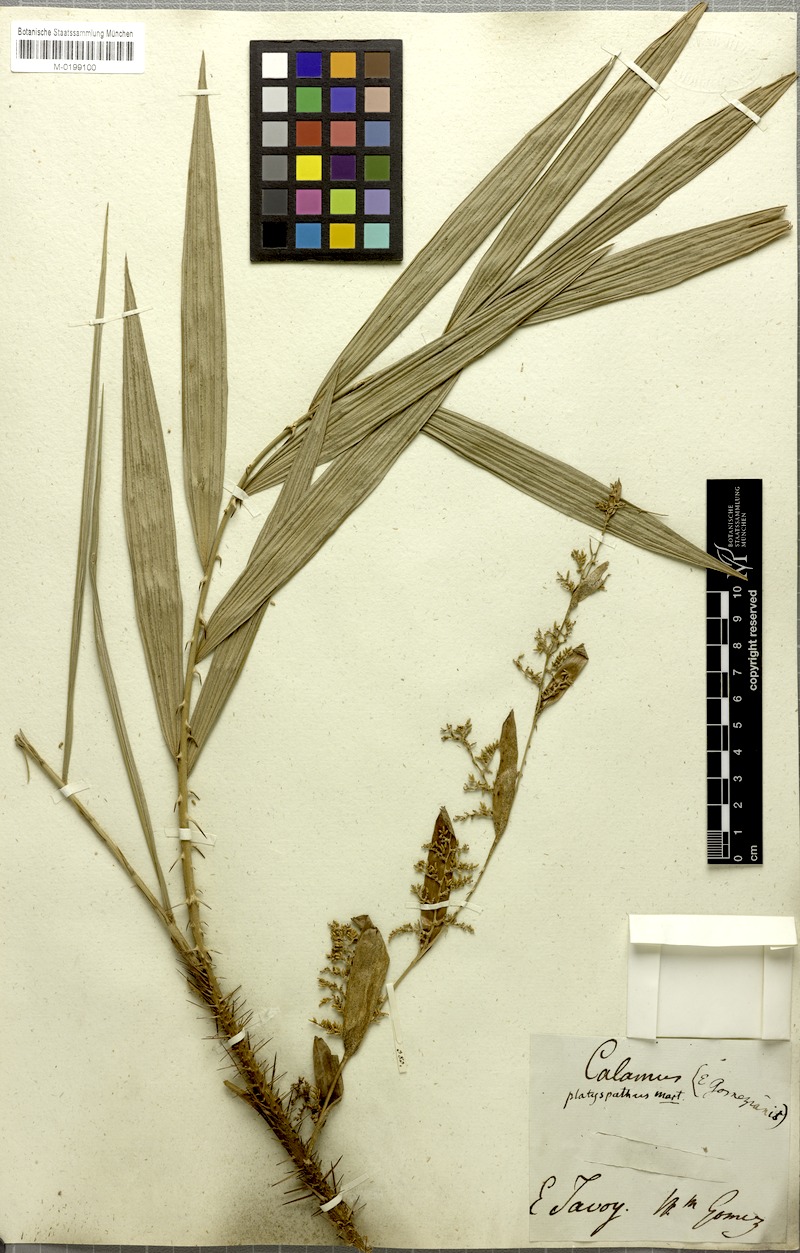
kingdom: Plantae
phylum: Tracheophyta
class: Liliopsida
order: Arecales
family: Arecaceae
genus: Calamus
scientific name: Calamus platyspathus
